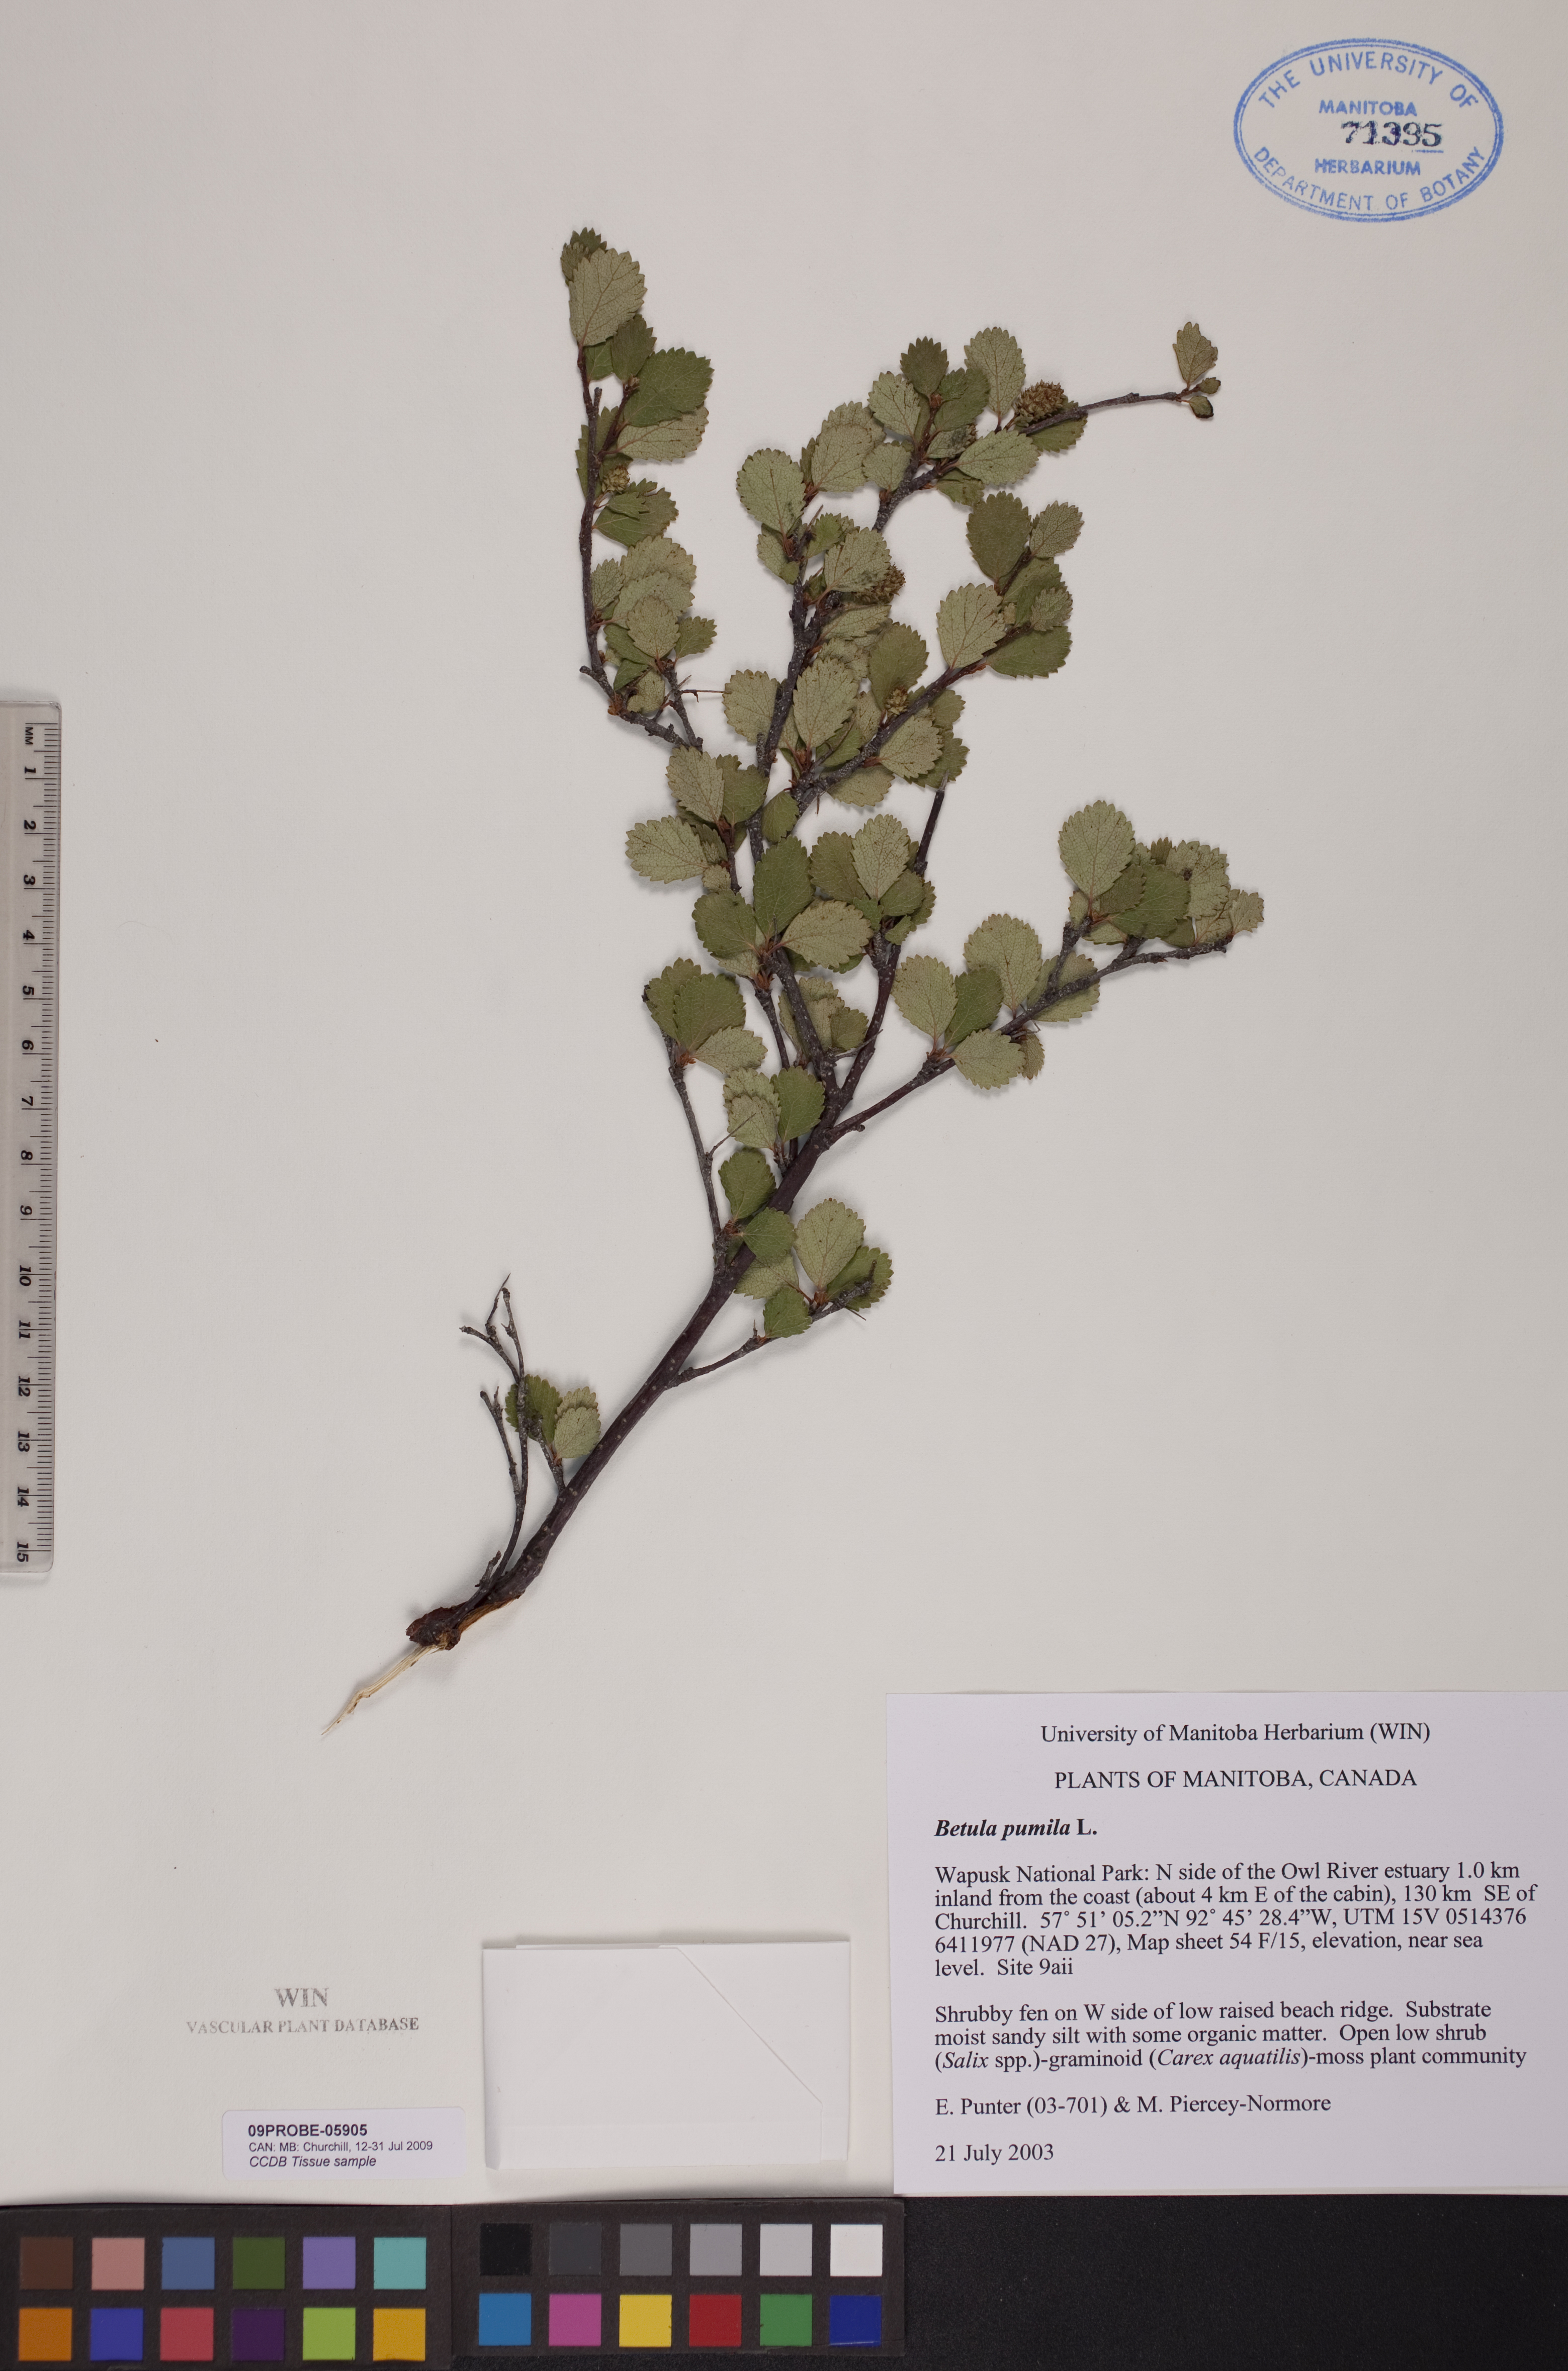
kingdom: Plantae
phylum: Tracheophyta
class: Magnoliopsida
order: Fagales
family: Betulaceae
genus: Betula
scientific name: Betula pumila
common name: Bog birch
